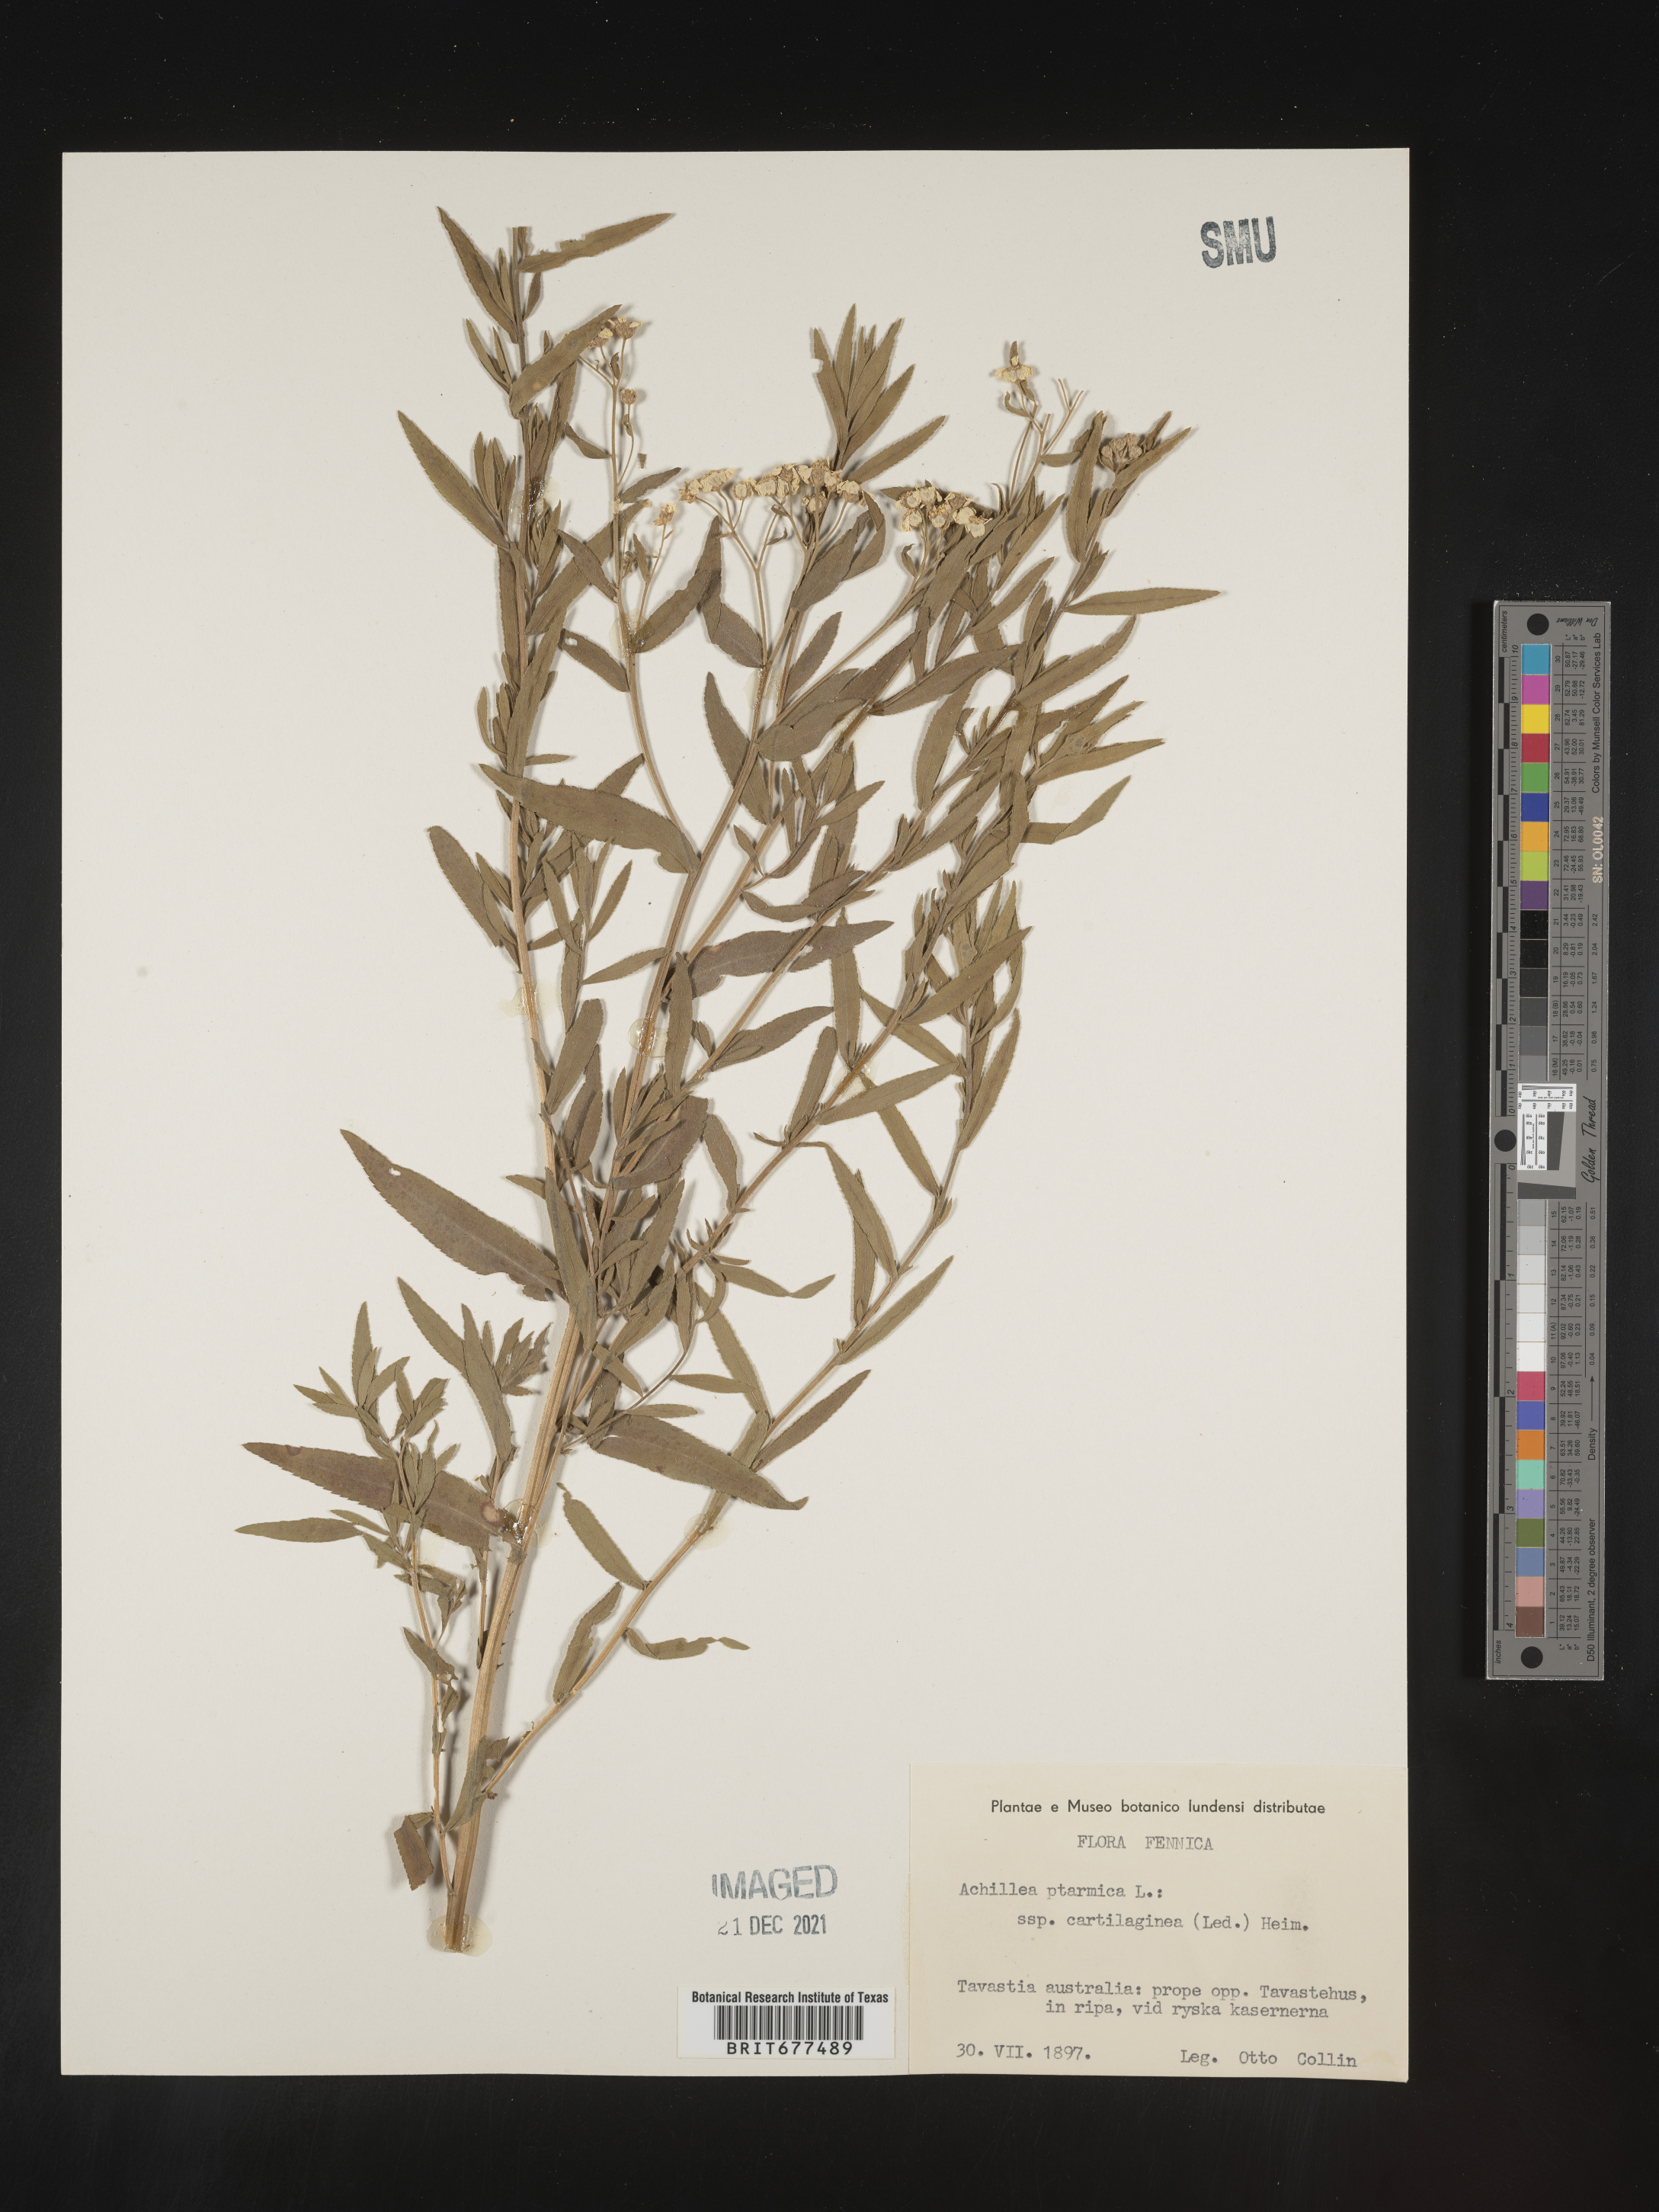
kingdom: Plantae
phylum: Tracheophyta
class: Magnoliopsida
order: Asterales
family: Asteraceae
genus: Achillea
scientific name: Achillea ptarmica
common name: Sneezeweed
